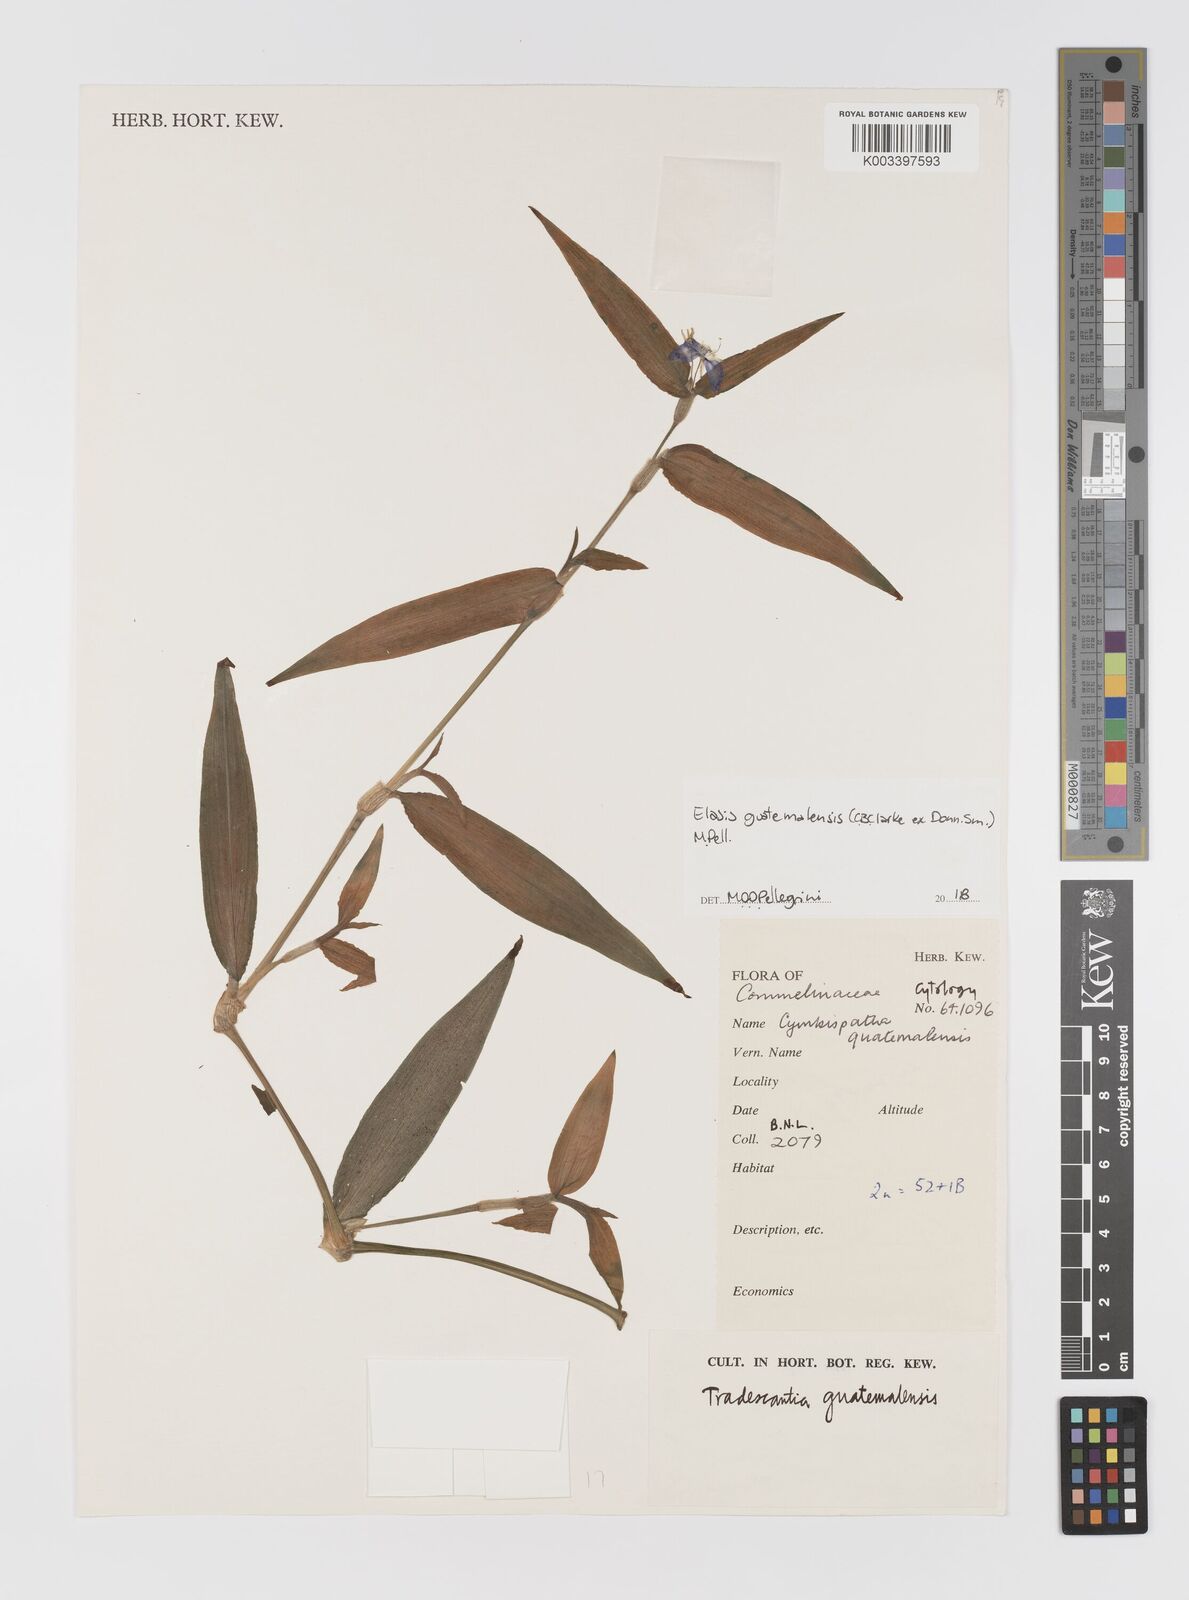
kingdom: Plantae
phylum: Tracheophyta
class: Liliopsida
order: Commelinales
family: Commelinaceae
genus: Elasis
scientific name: Elasis guatemalensis
